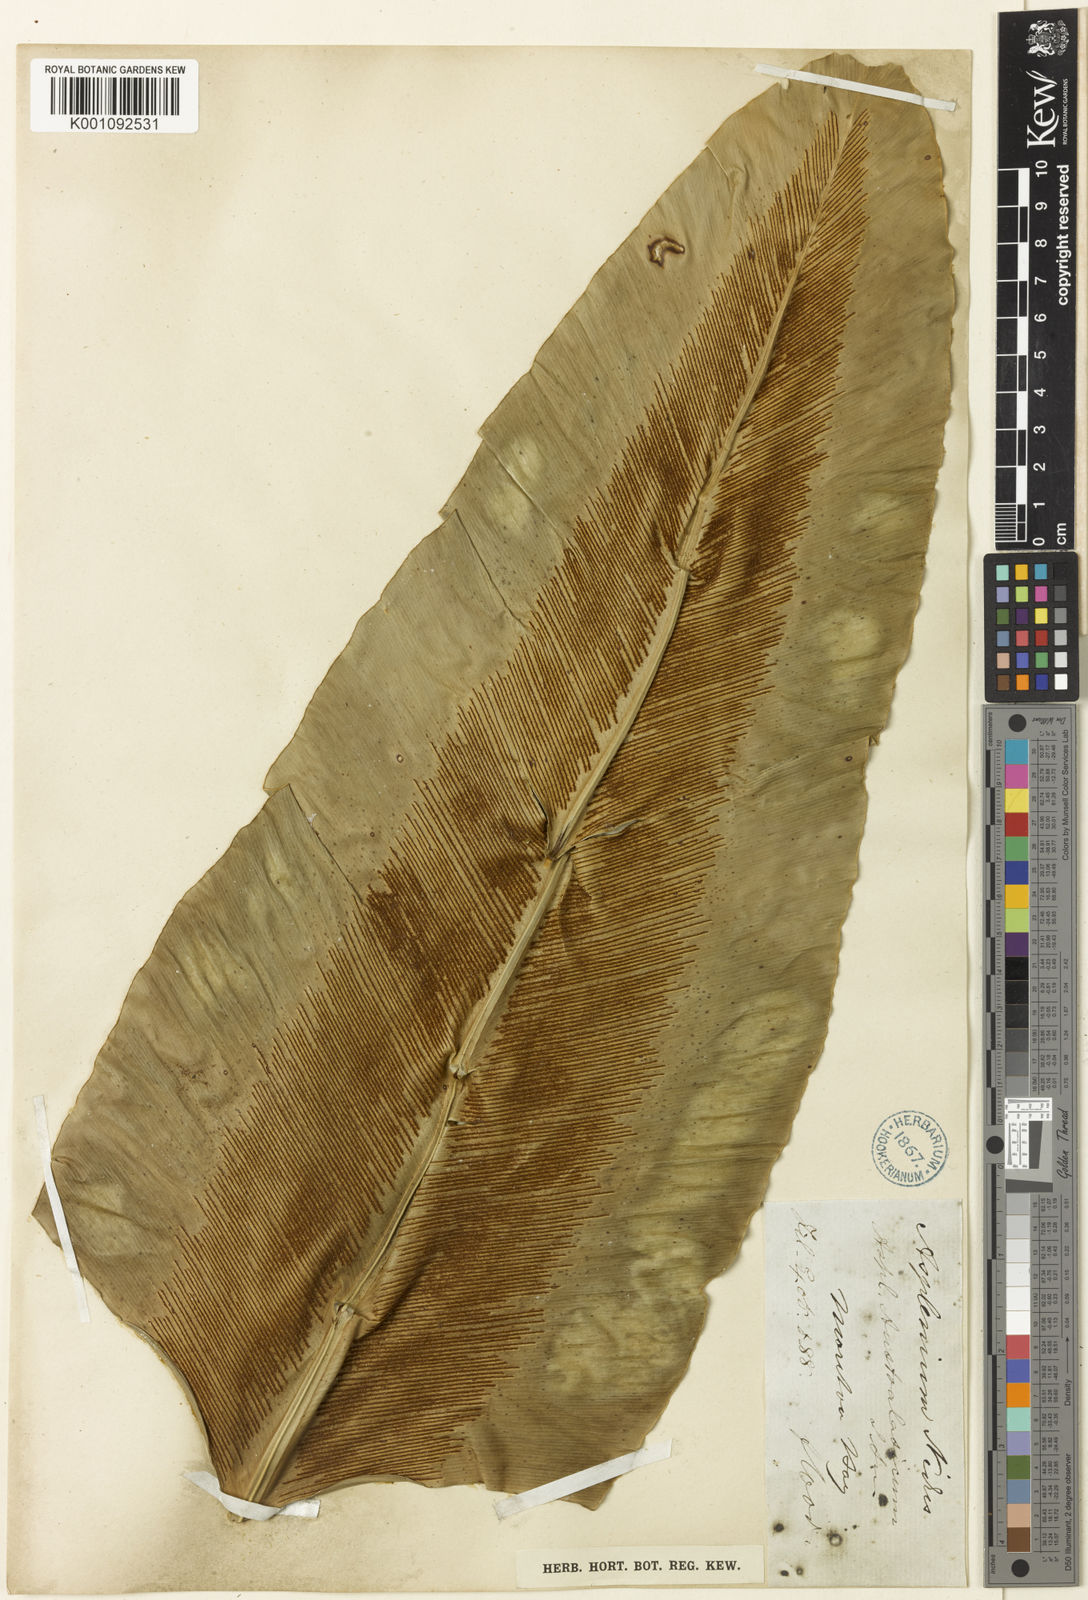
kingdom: Plantae
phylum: Tracheophyta
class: Polypodiopsida
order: Polypodiales
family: Aspleniaceae
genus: Asplenium
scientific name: Asplenium australasicum
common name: Bird's-nest fern
